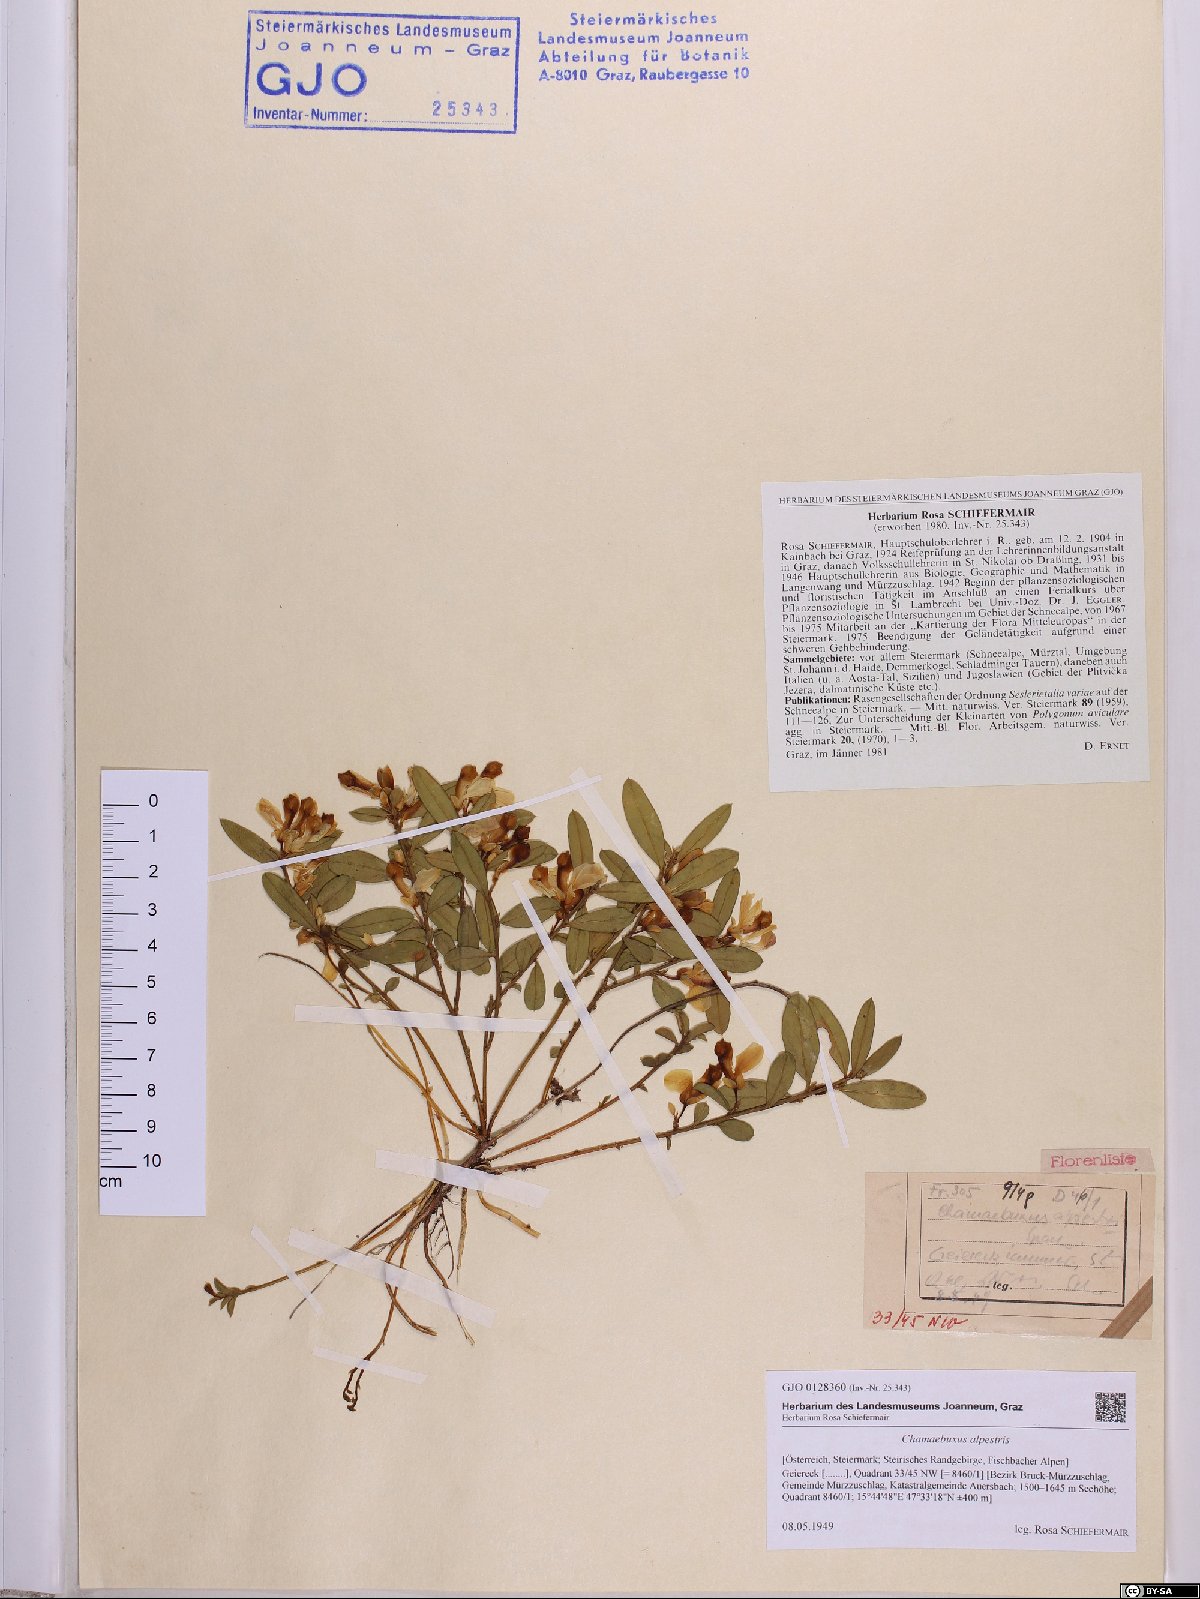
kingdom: Plantae
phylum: Tracheophyta
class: Magnoliopsida
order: Fabales
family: Polygalaceae
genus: Polygaloides
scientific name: Polygaloides chamaebuxus
